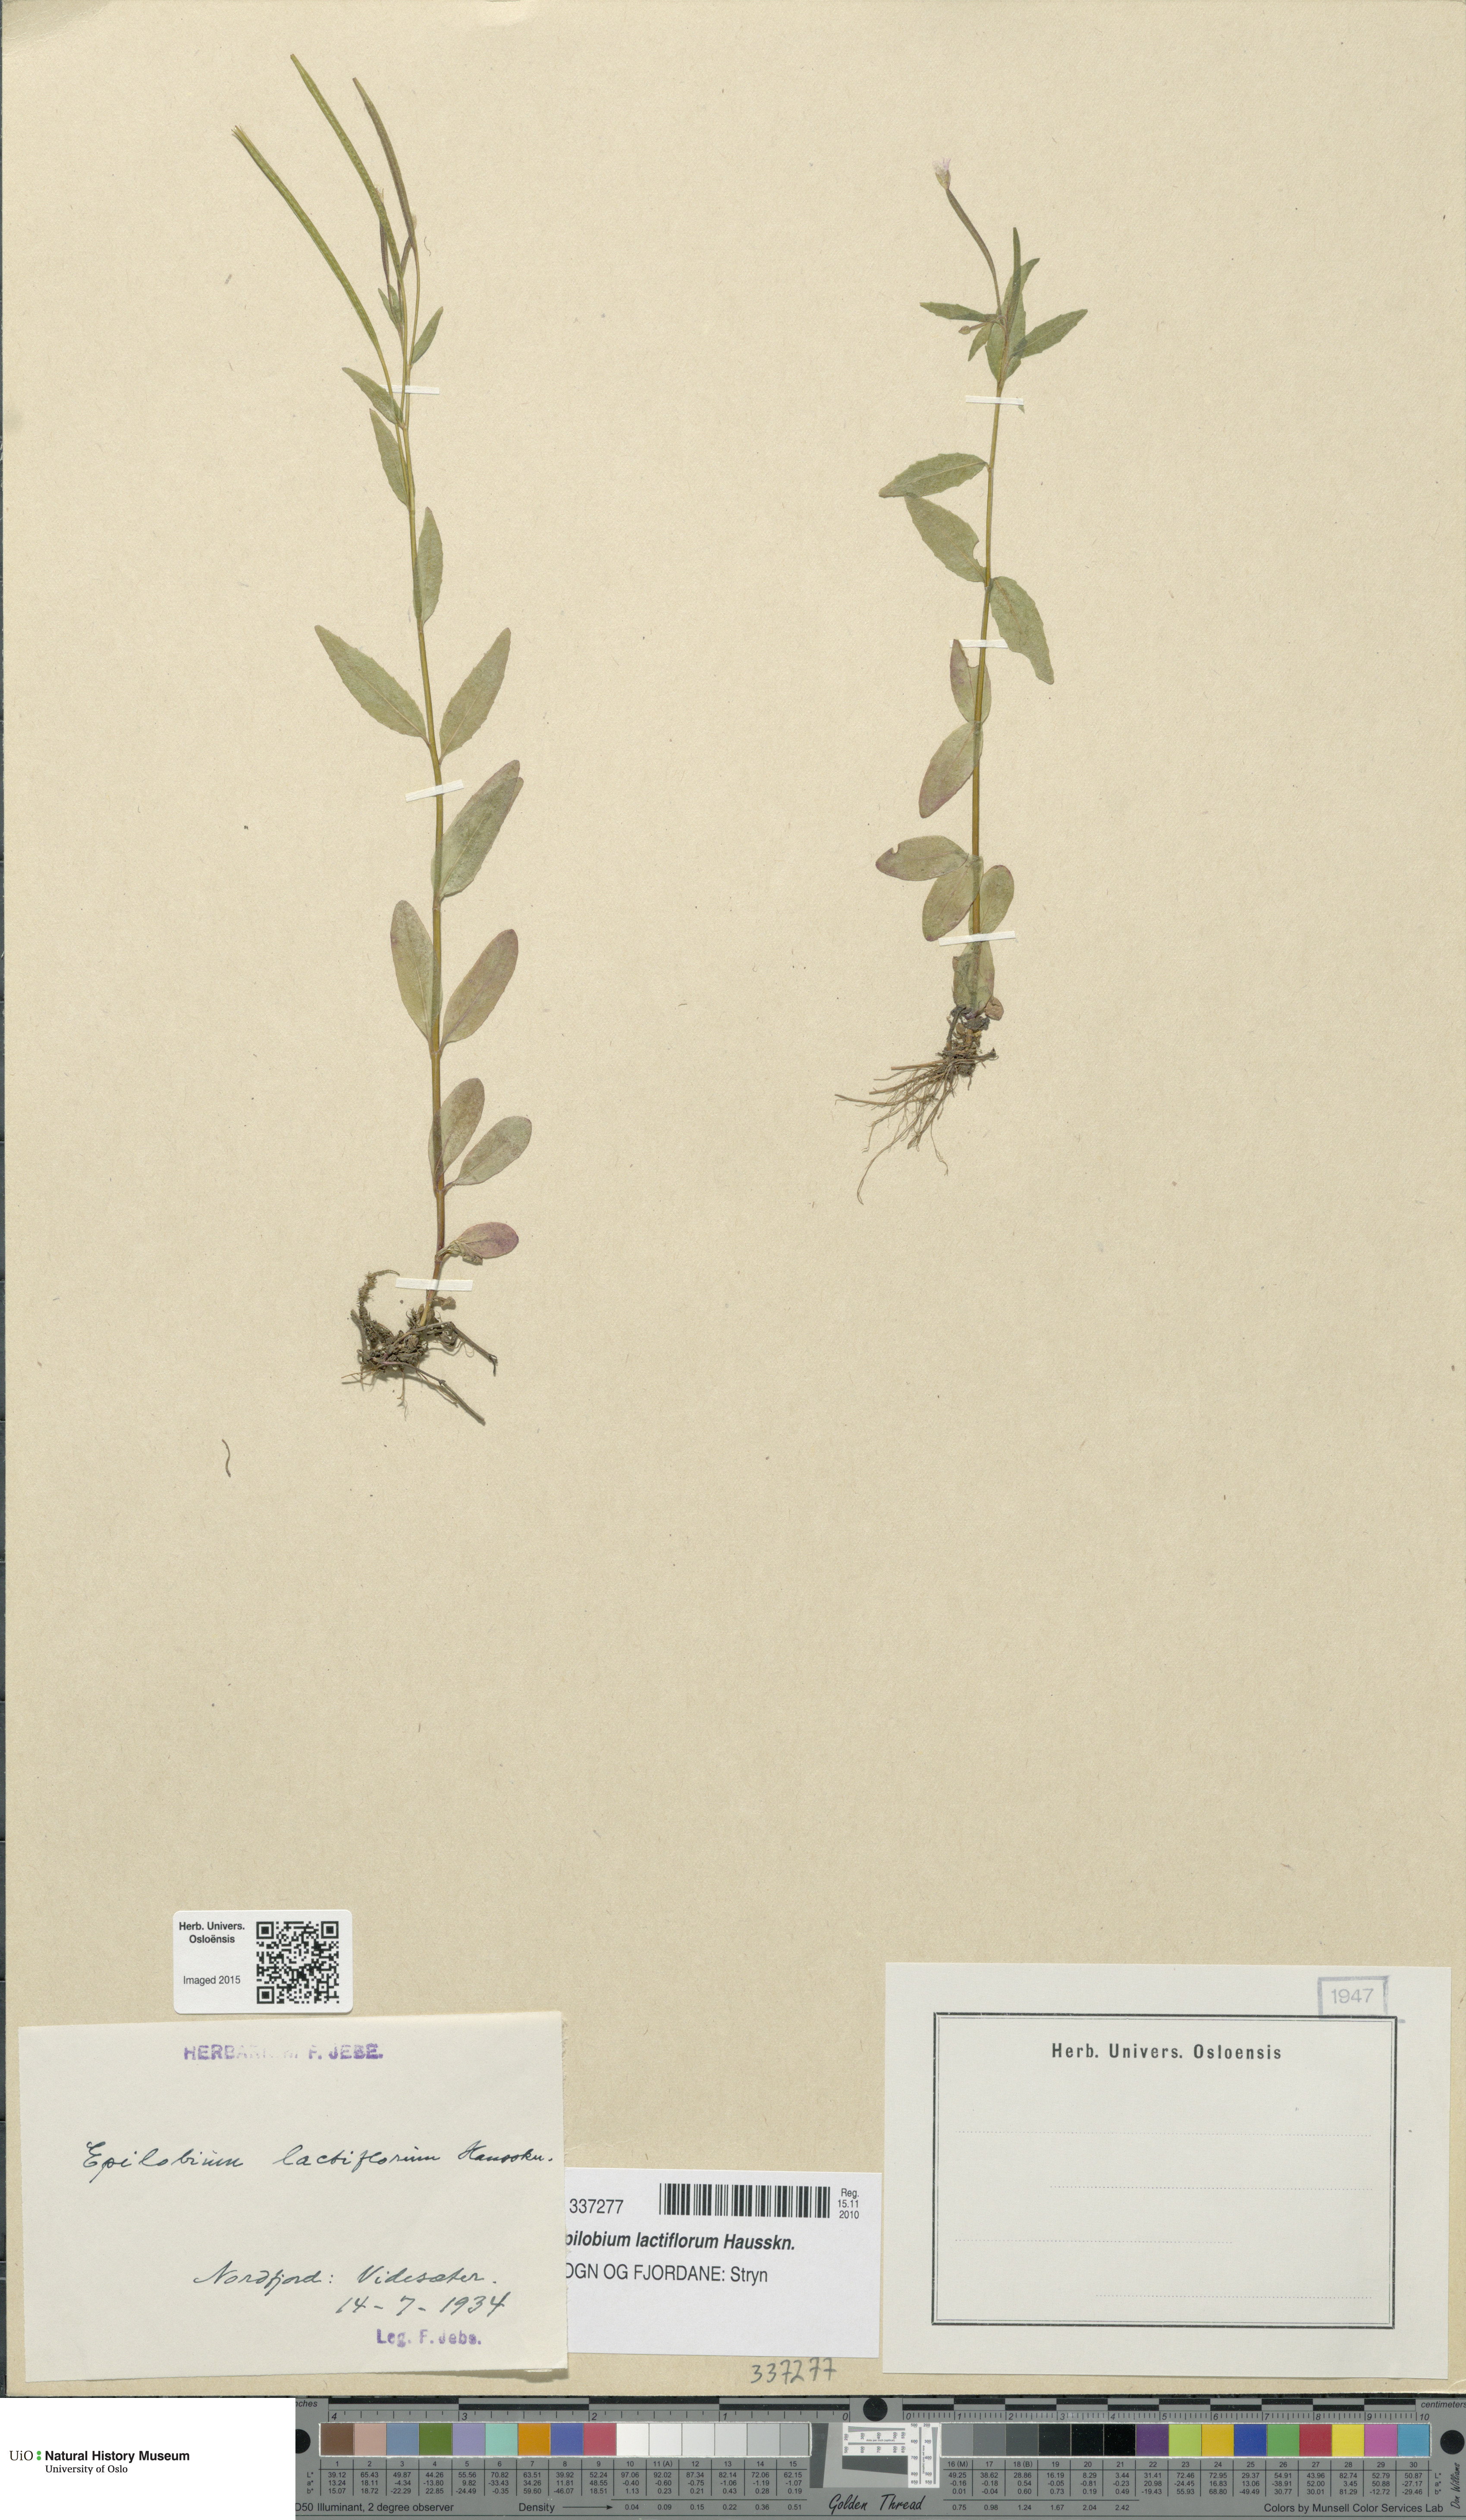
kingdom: Plantae
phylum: Tracheophyta
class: Magnoliopsida
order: Myrtales
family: Onagraceae
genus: Epilobium
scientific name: Epilobium lactiflorum
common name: Milkflower willowherb
